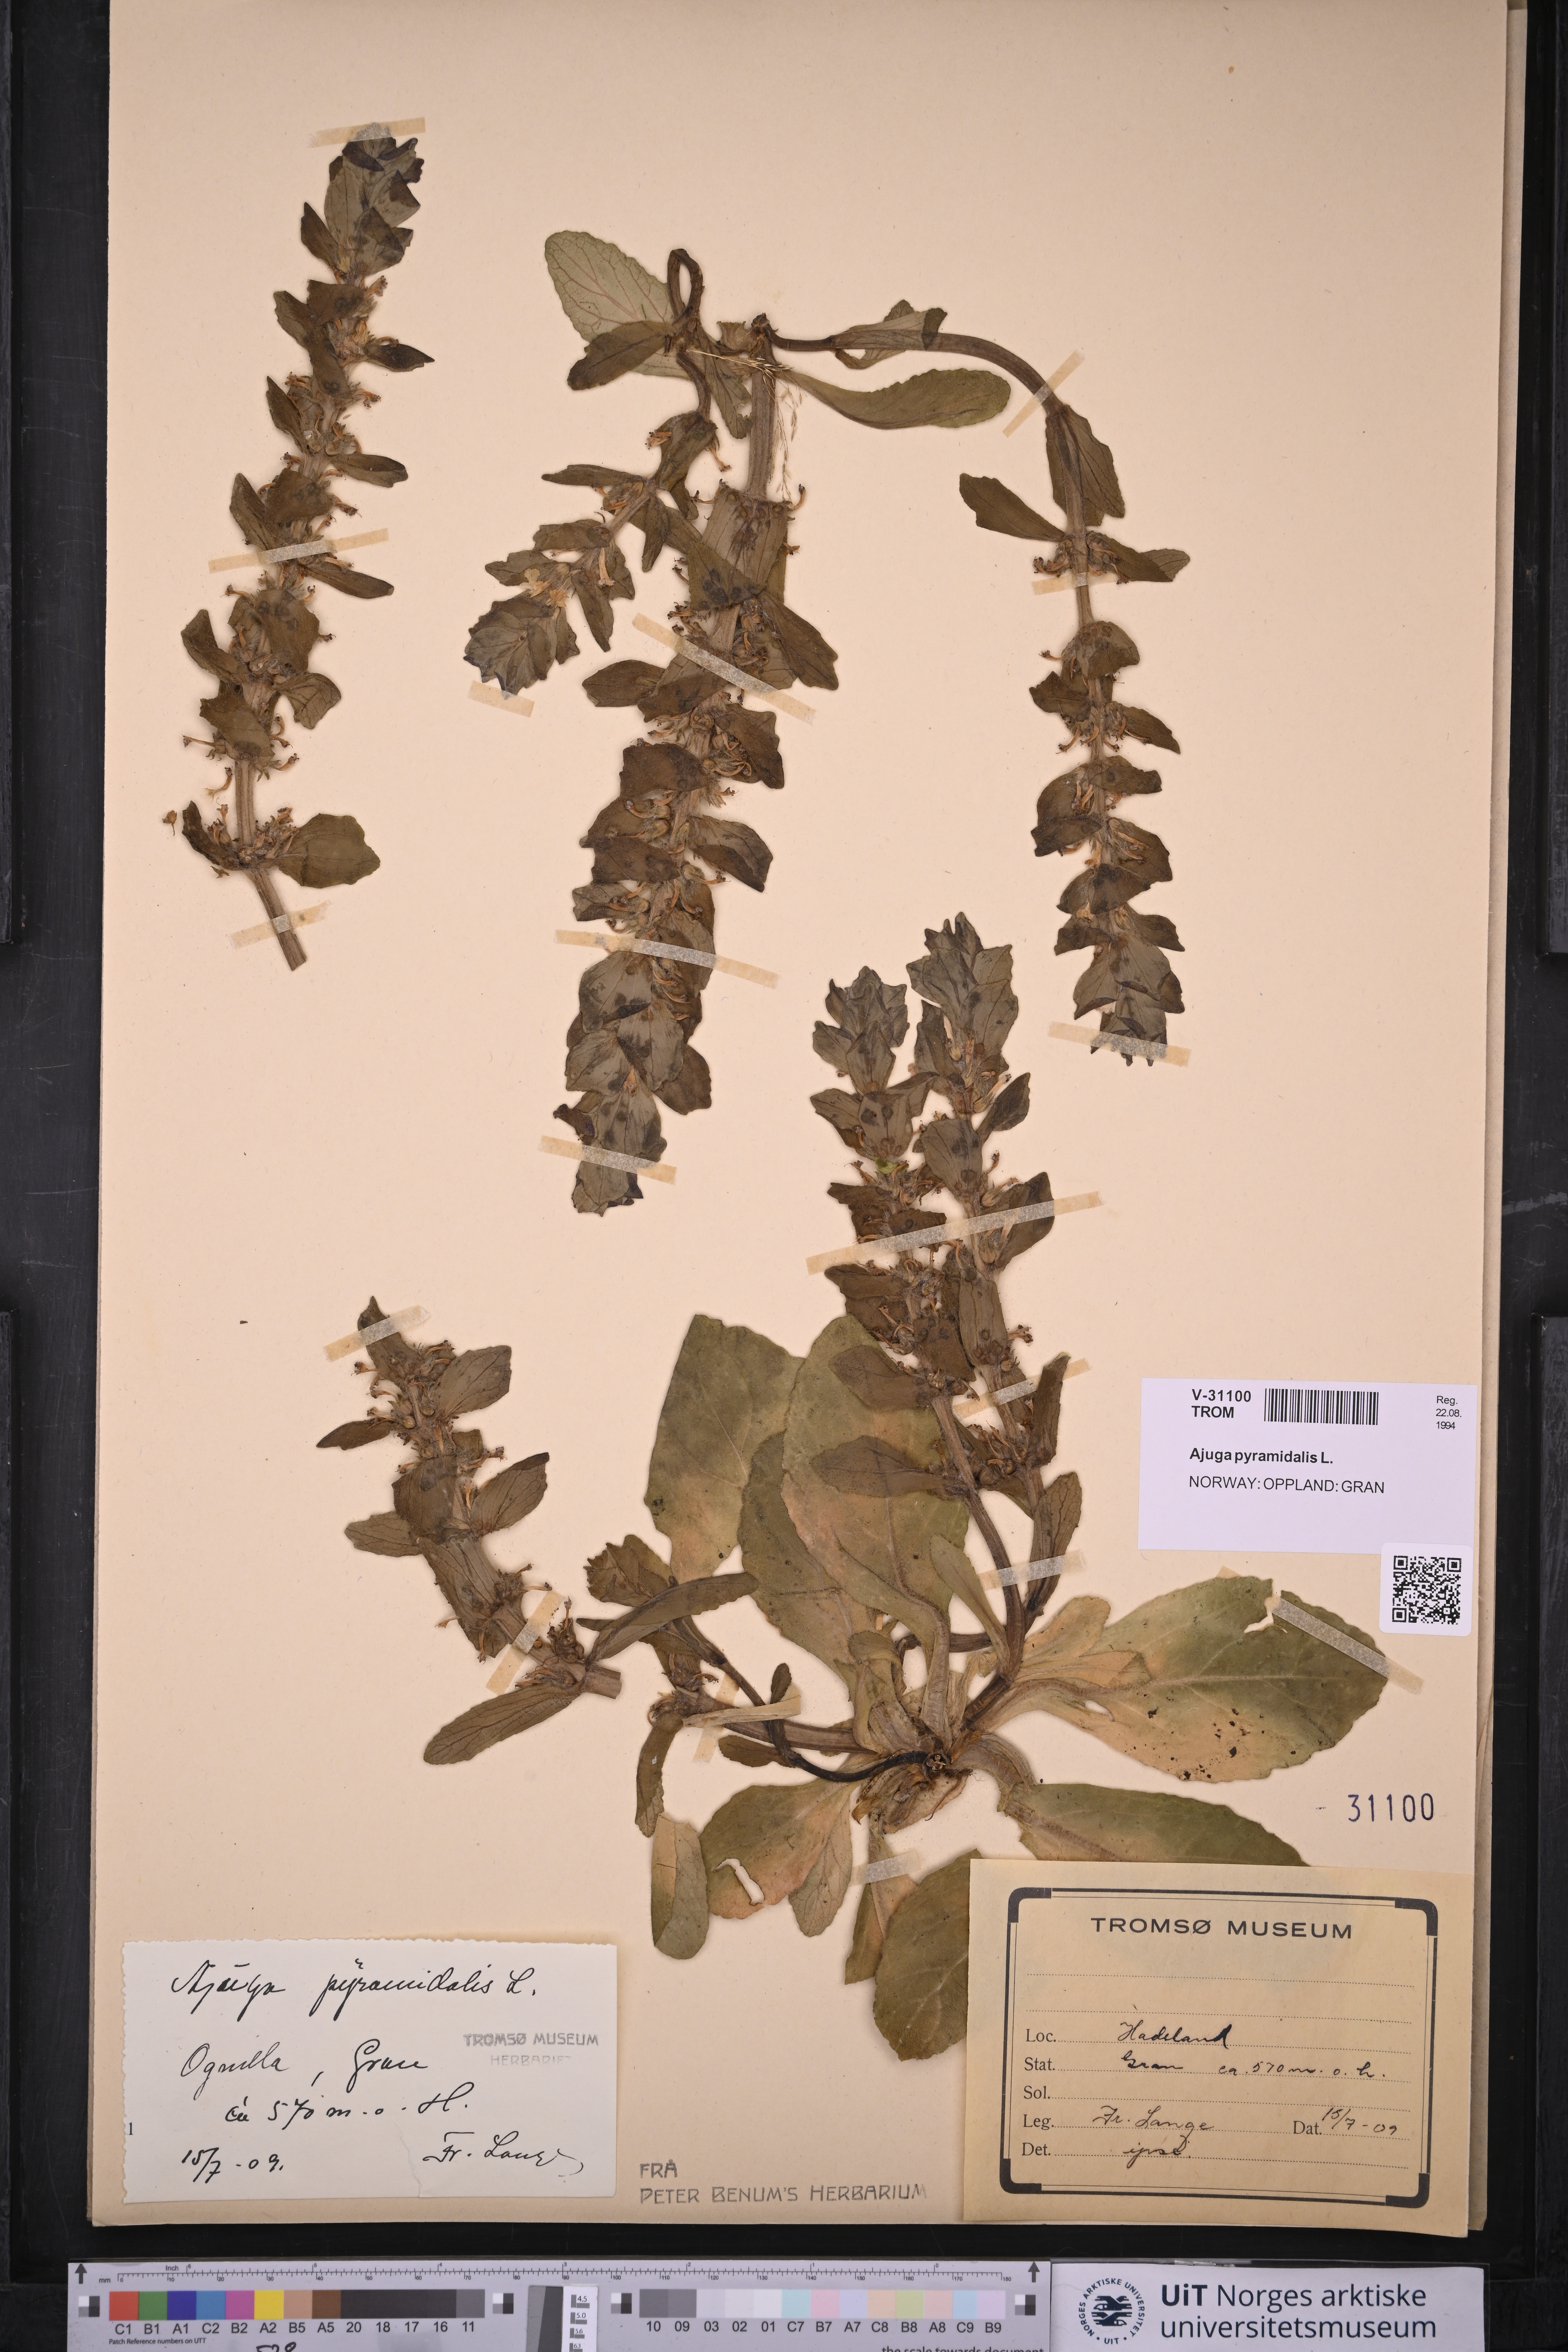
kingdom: Plantae
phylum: Tracheophyta
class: Magnoliopsida
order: Lamiales
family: Lamiaceae
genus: Ajuga
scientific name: Ajuga pyramidalis
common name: Pyramid bugle
